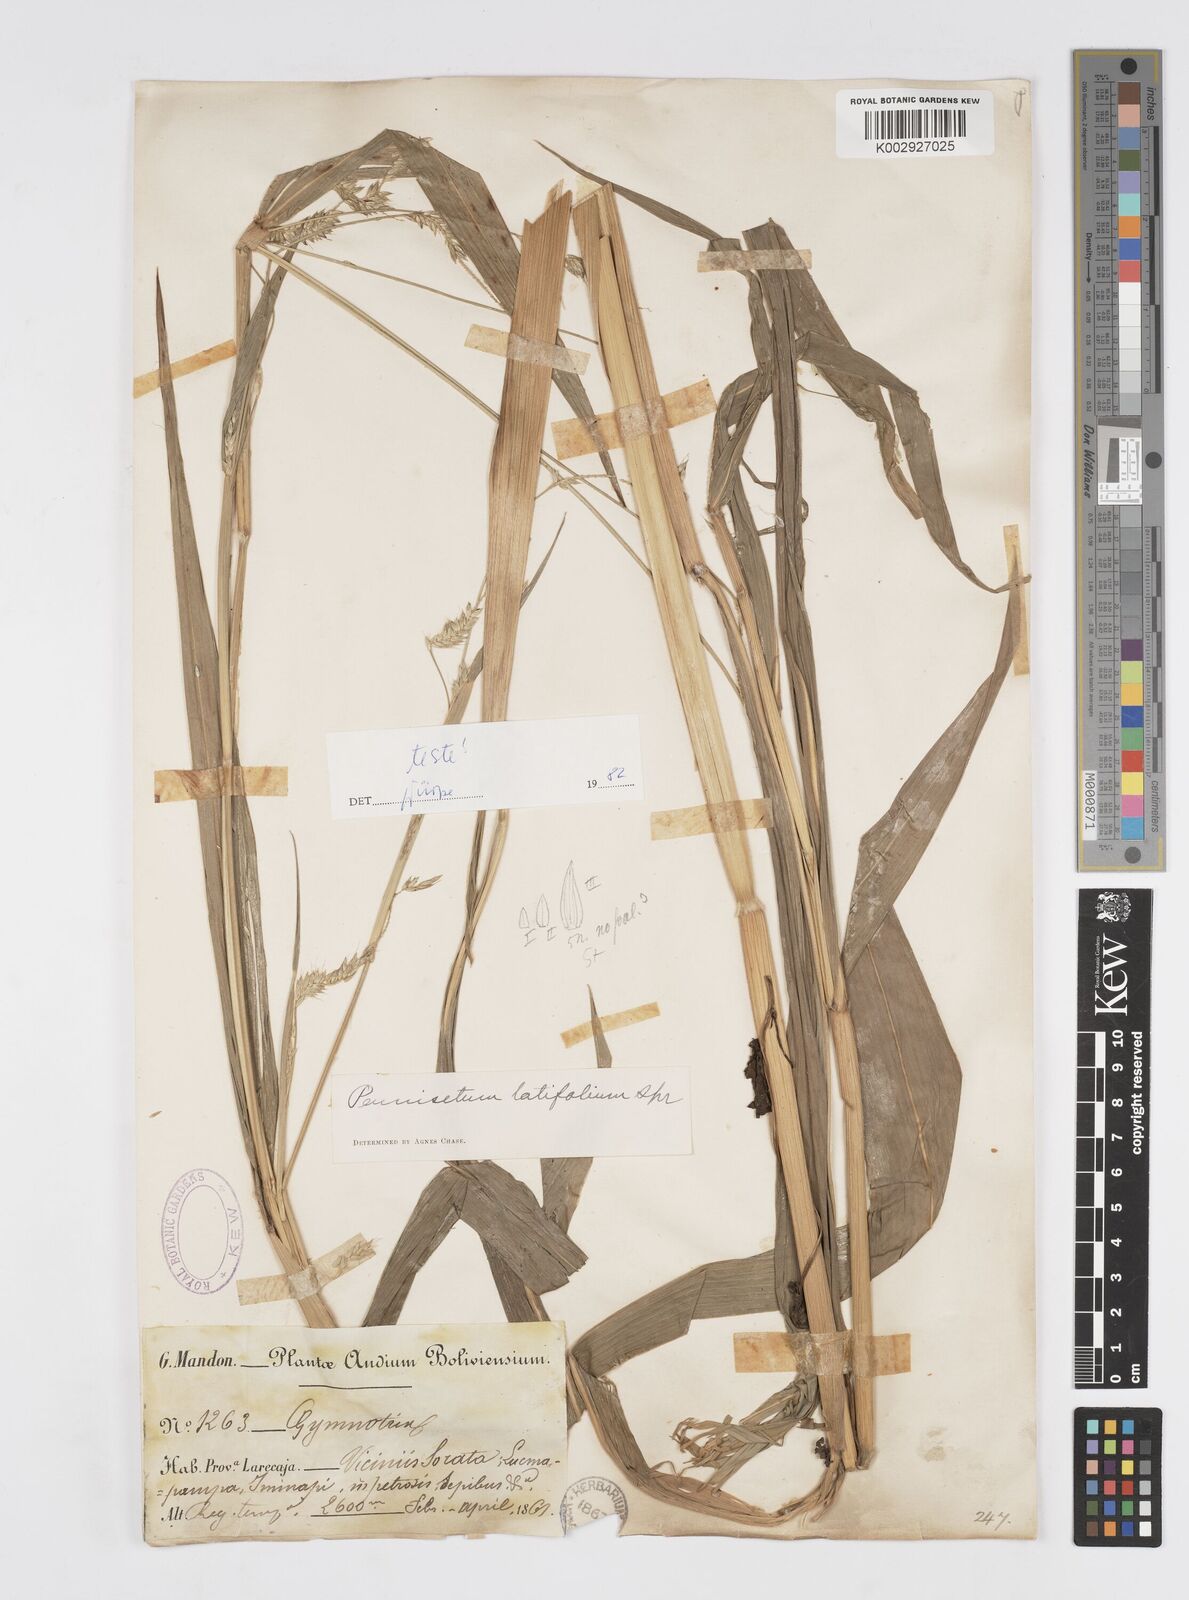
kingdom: Plantae
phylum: Tracheophyta
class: Liliopsida
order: Poales
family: Poaceae
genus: Cenchrus
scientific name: Cenchrus latifolius
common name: Sandbur
